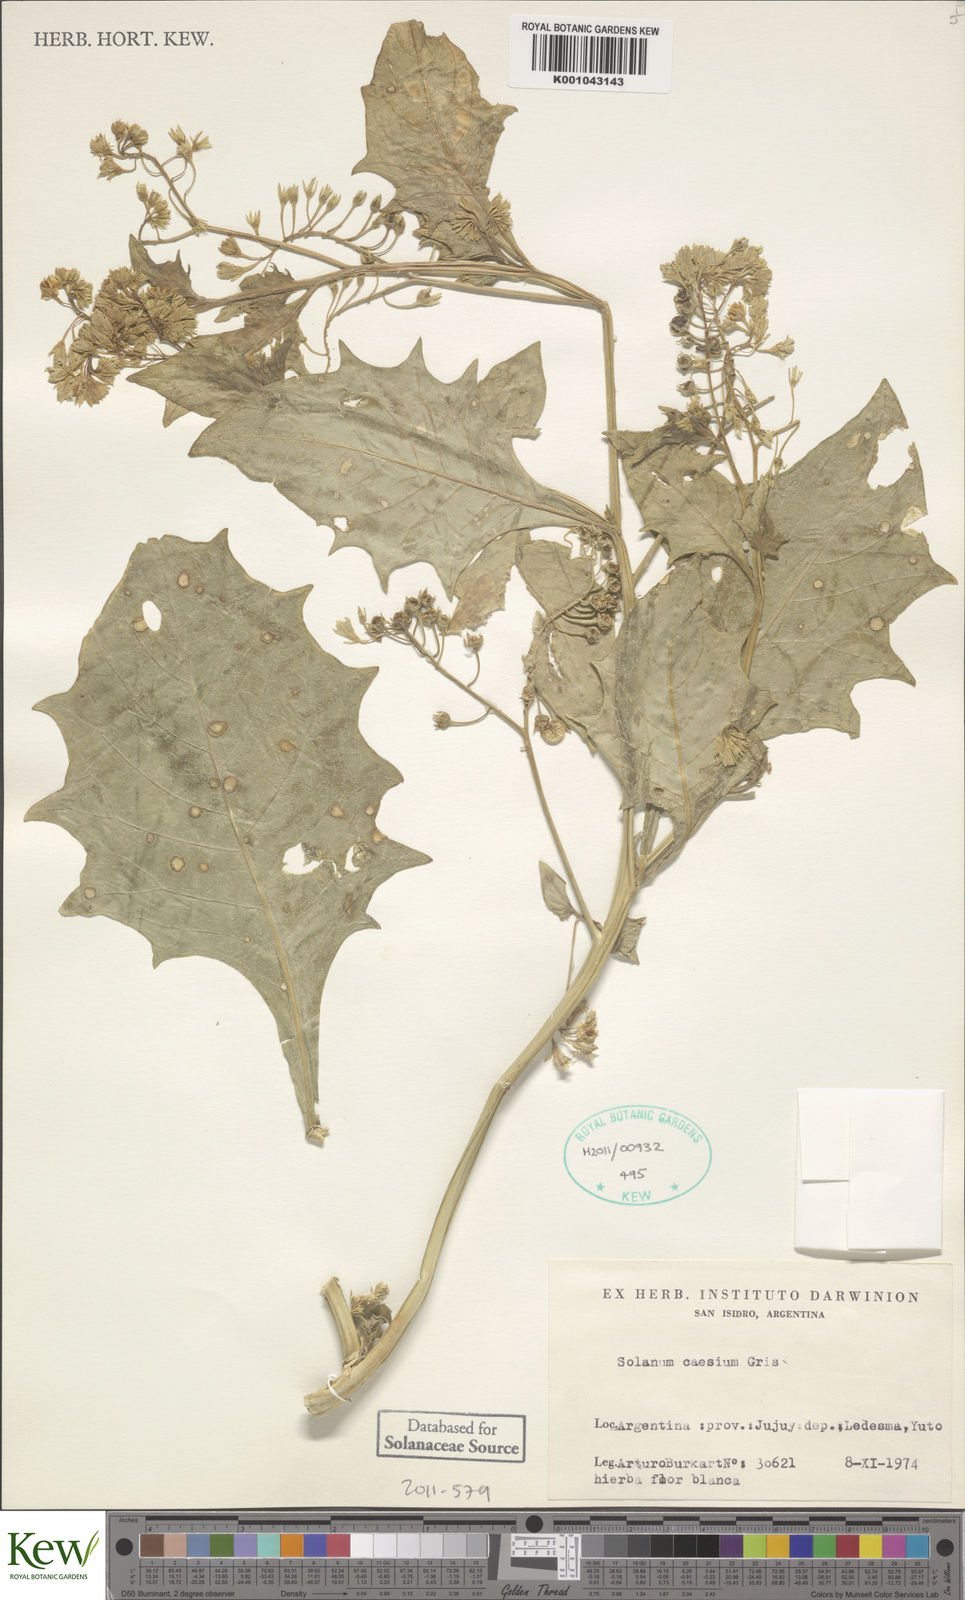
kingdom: Plantae
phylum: Tracheophyta
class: Magnoliopsida
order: Solanales
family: Solanaceae
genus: Solanum
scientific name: Solanum caesium
